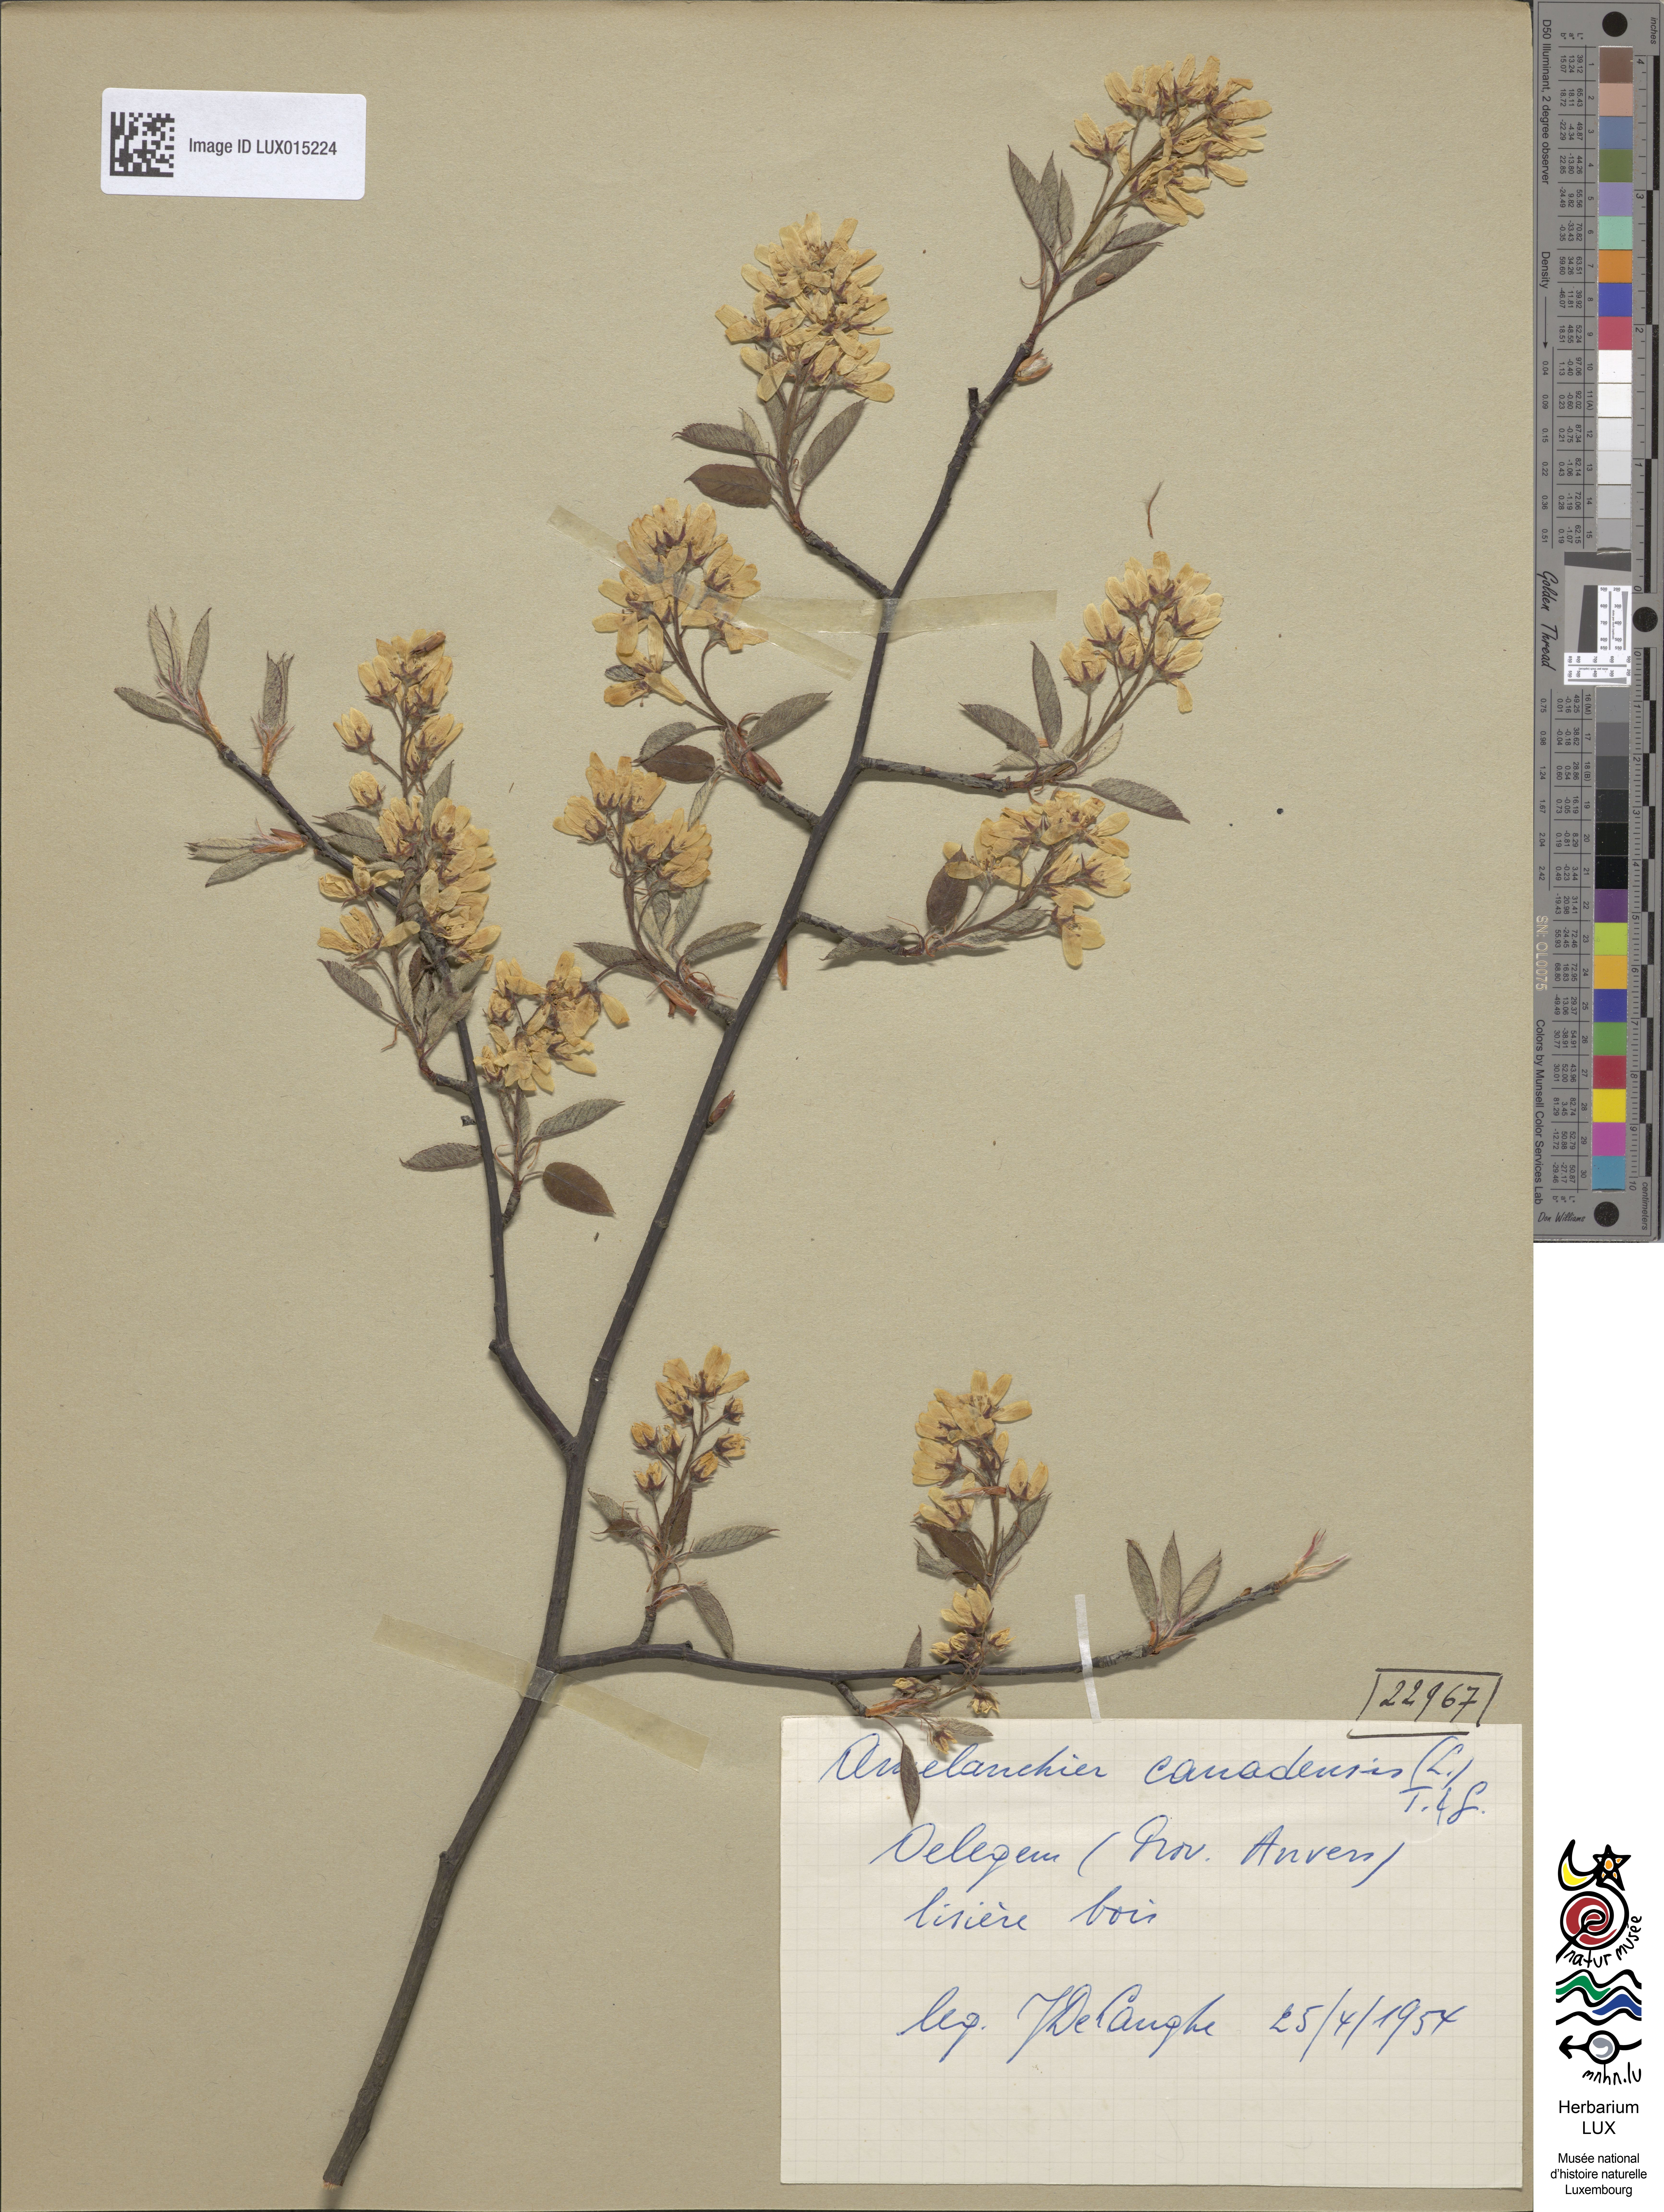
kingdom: Plantae
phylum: Tracheophyta
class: Magnoliopsida
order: Rosales
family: Rosaceae
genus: Amelanchier
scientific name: Amelanchier canadensis
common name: Thicket serviceberry
